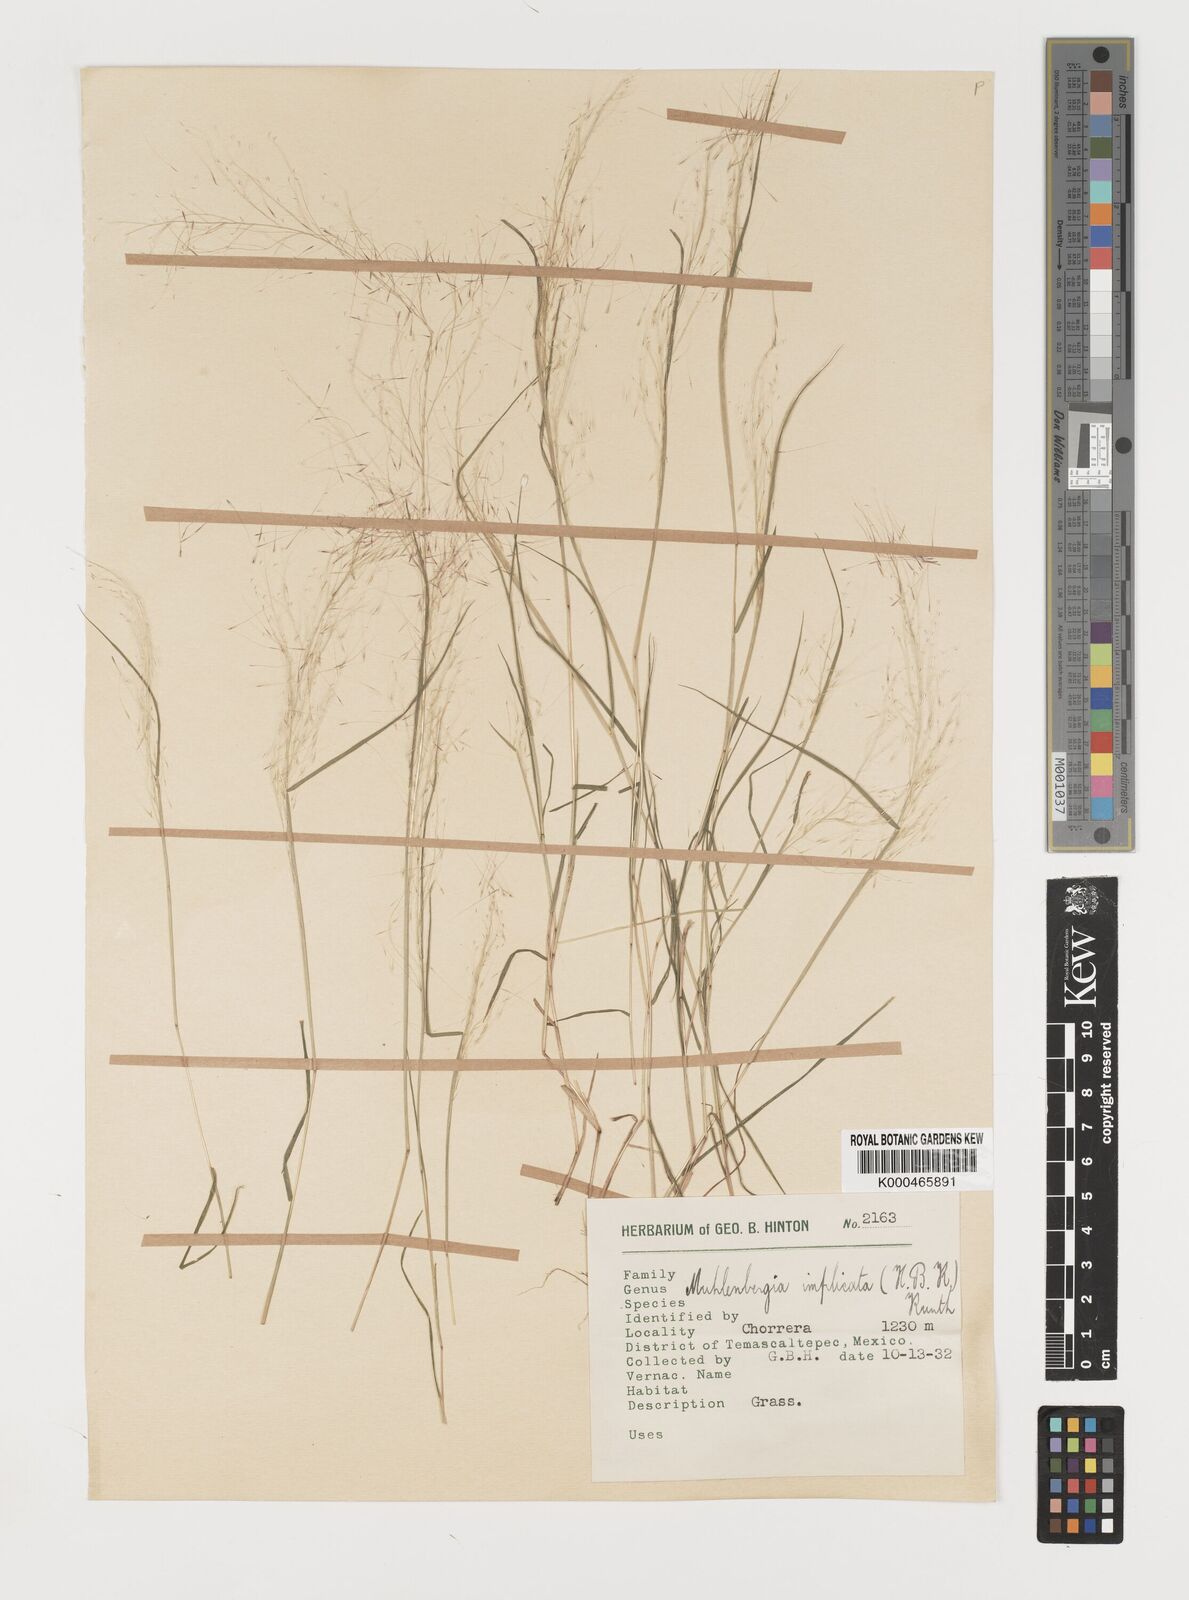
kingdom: Plantae
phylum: Tracheophyta
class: Liliopsida
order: Poales
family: Poaceae
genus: Muhlenbergia
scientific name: Muhlenbergia implicata
